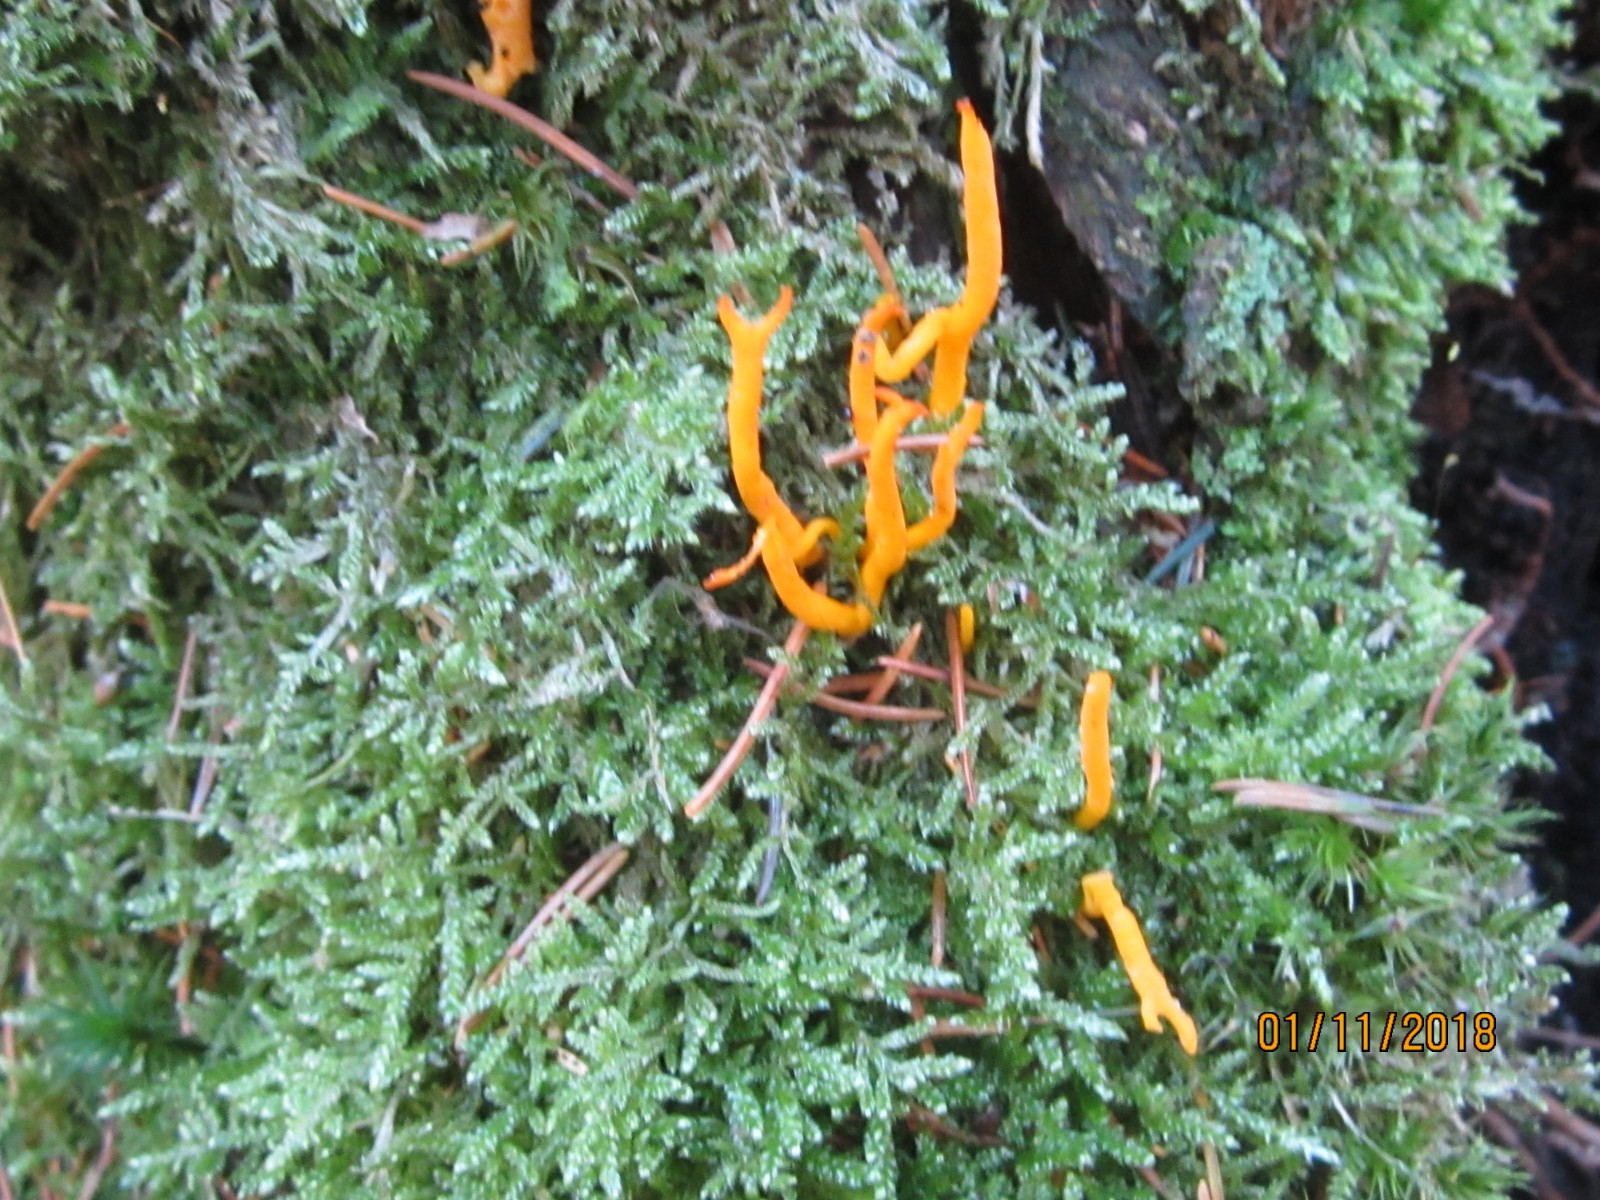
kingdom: Fungi
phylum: Basidiomycota
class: Dacrymycetes
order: Dacrymycetales
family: Dacrymycetaceae
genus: Calocera
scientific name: Calocera viscosa
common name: almindelig guldgaffel
